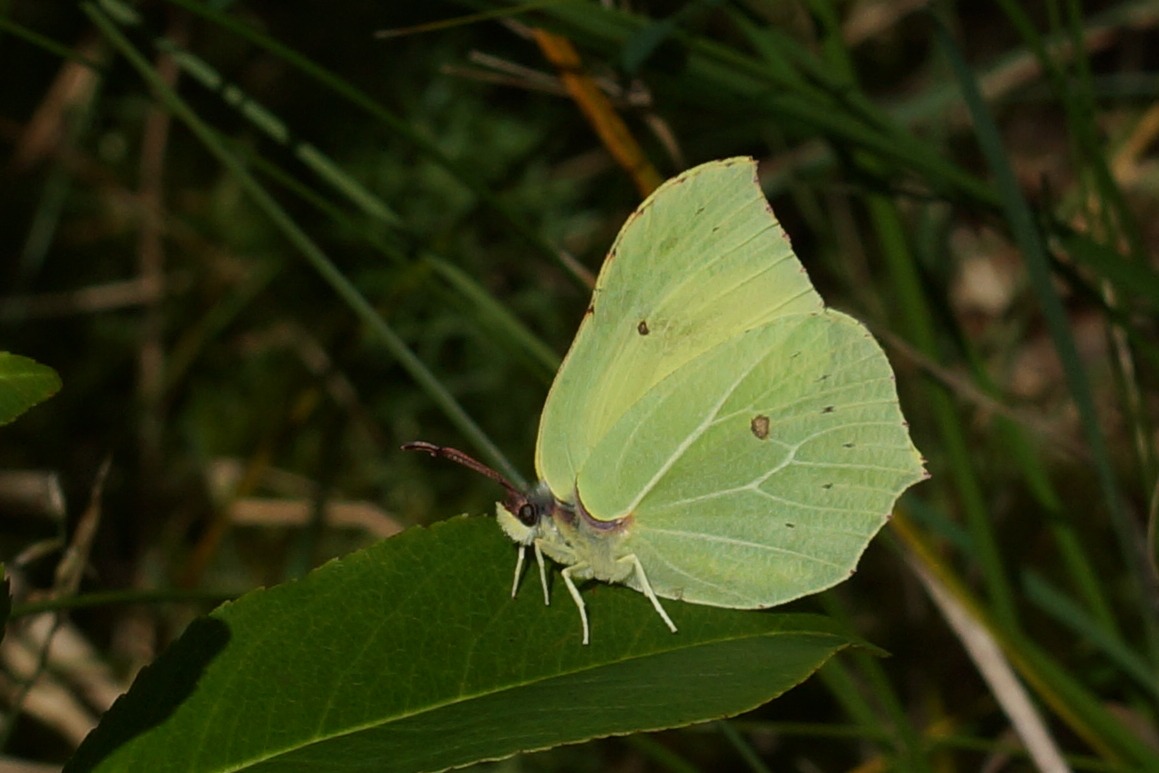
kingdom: Animalia
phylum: Arthropoda
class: Insecta
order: Lepidoptera
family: Pieridae
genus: Gonepteryx
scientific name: Gonepteryx rhamni
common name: Citronsommerfugl
